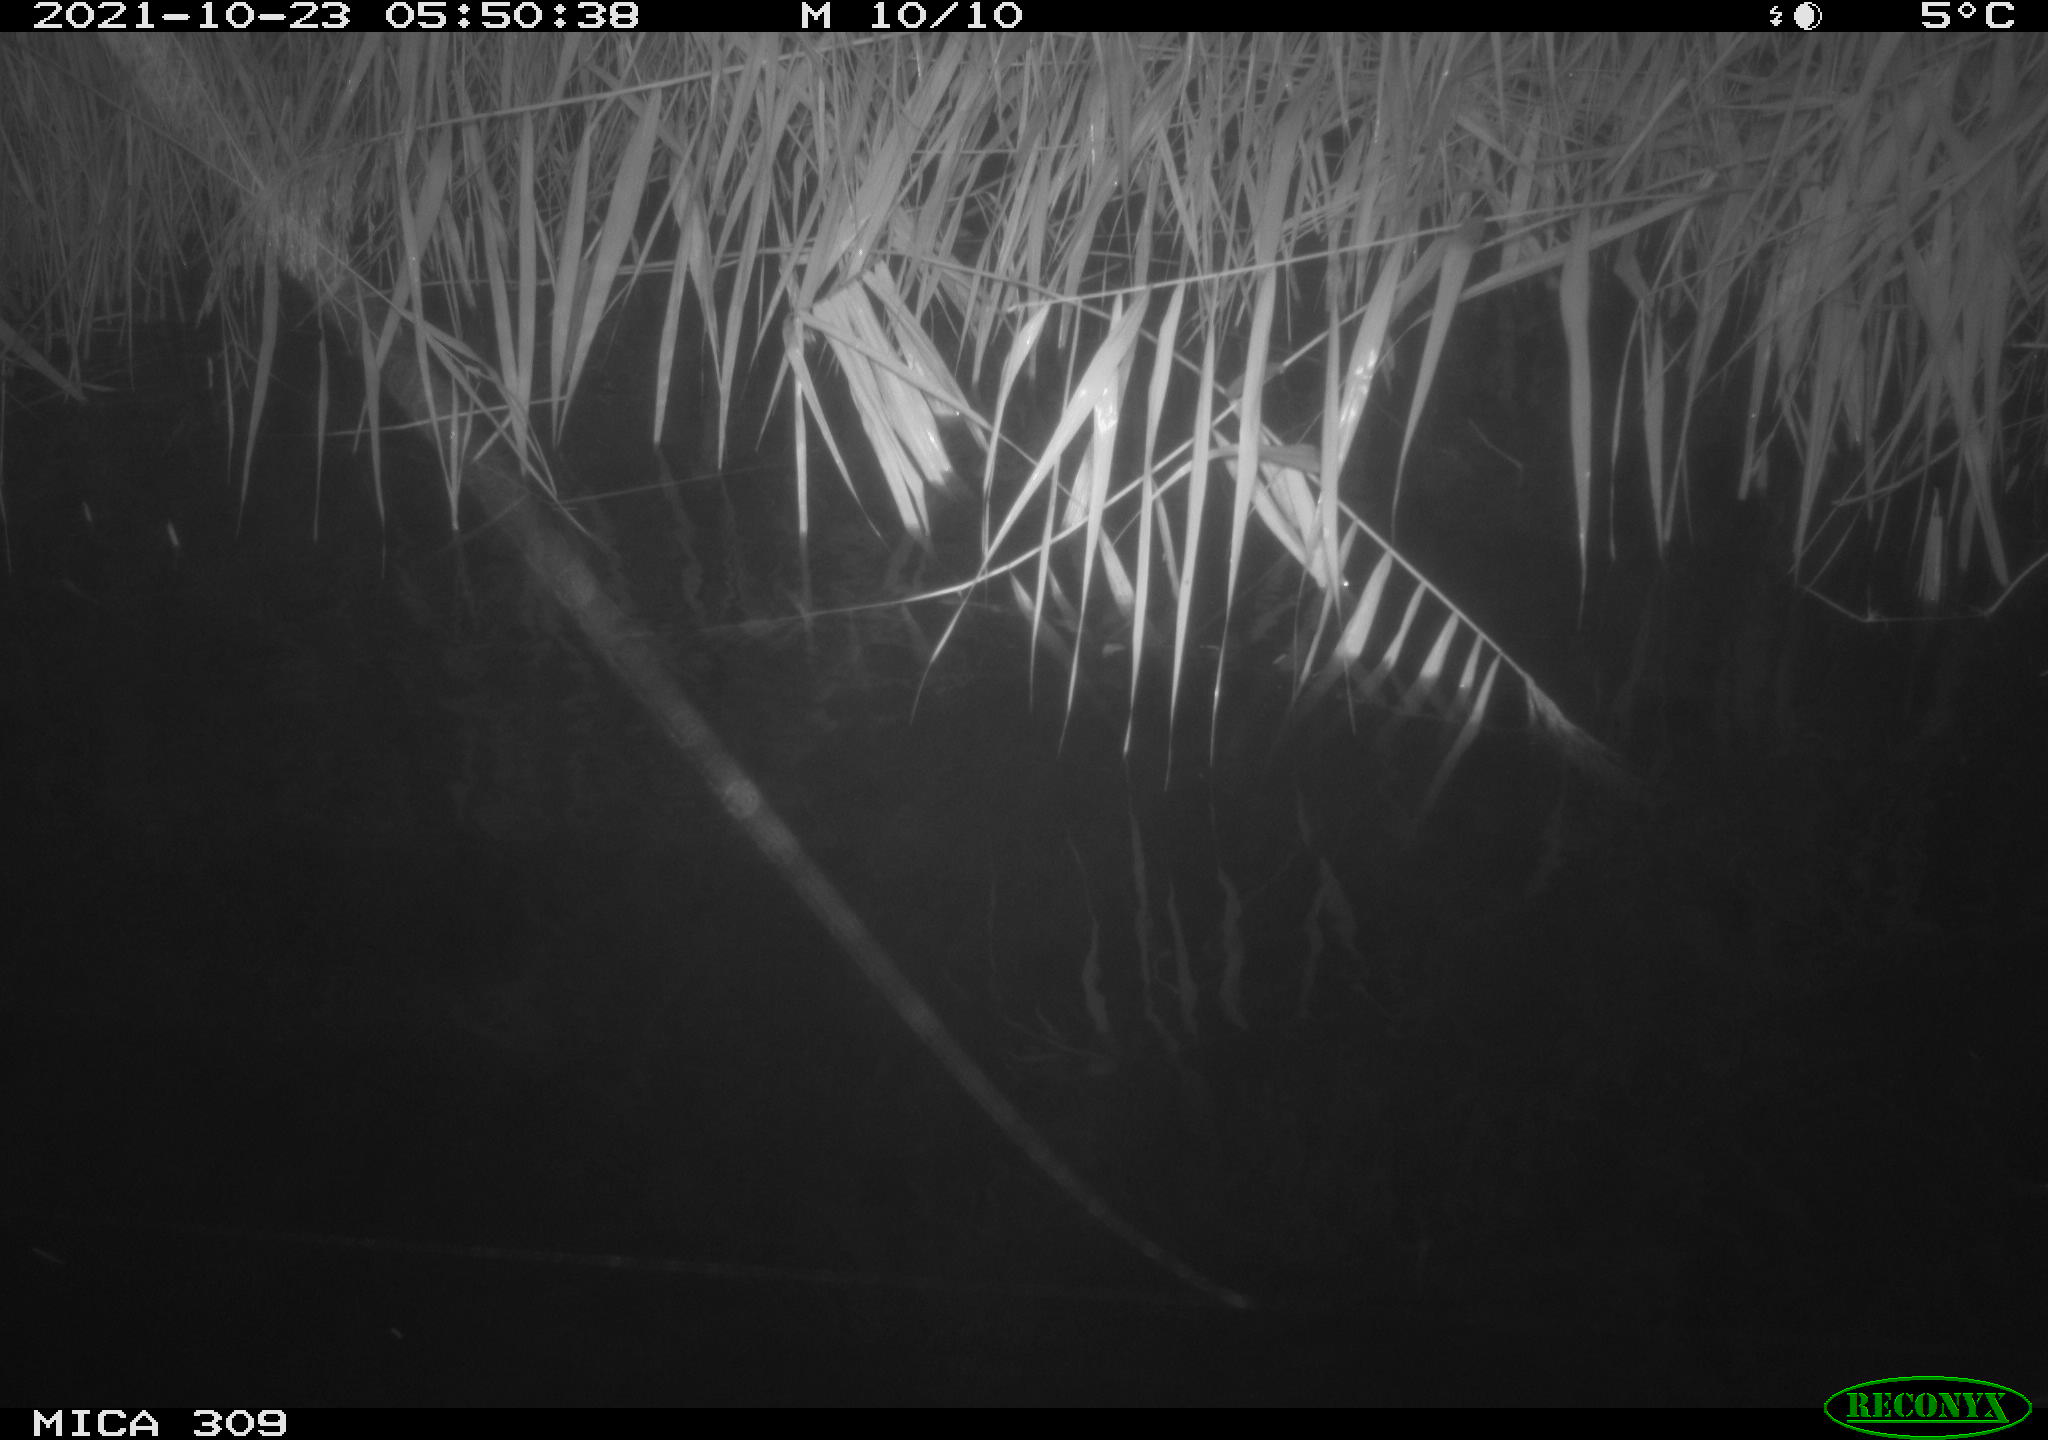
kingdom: Animalia
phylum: Chordata
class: Mammalia
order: Rodentia
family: Cricetidae
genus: Ondatra
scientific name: Ondatra zibethicus
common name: Muskrat
